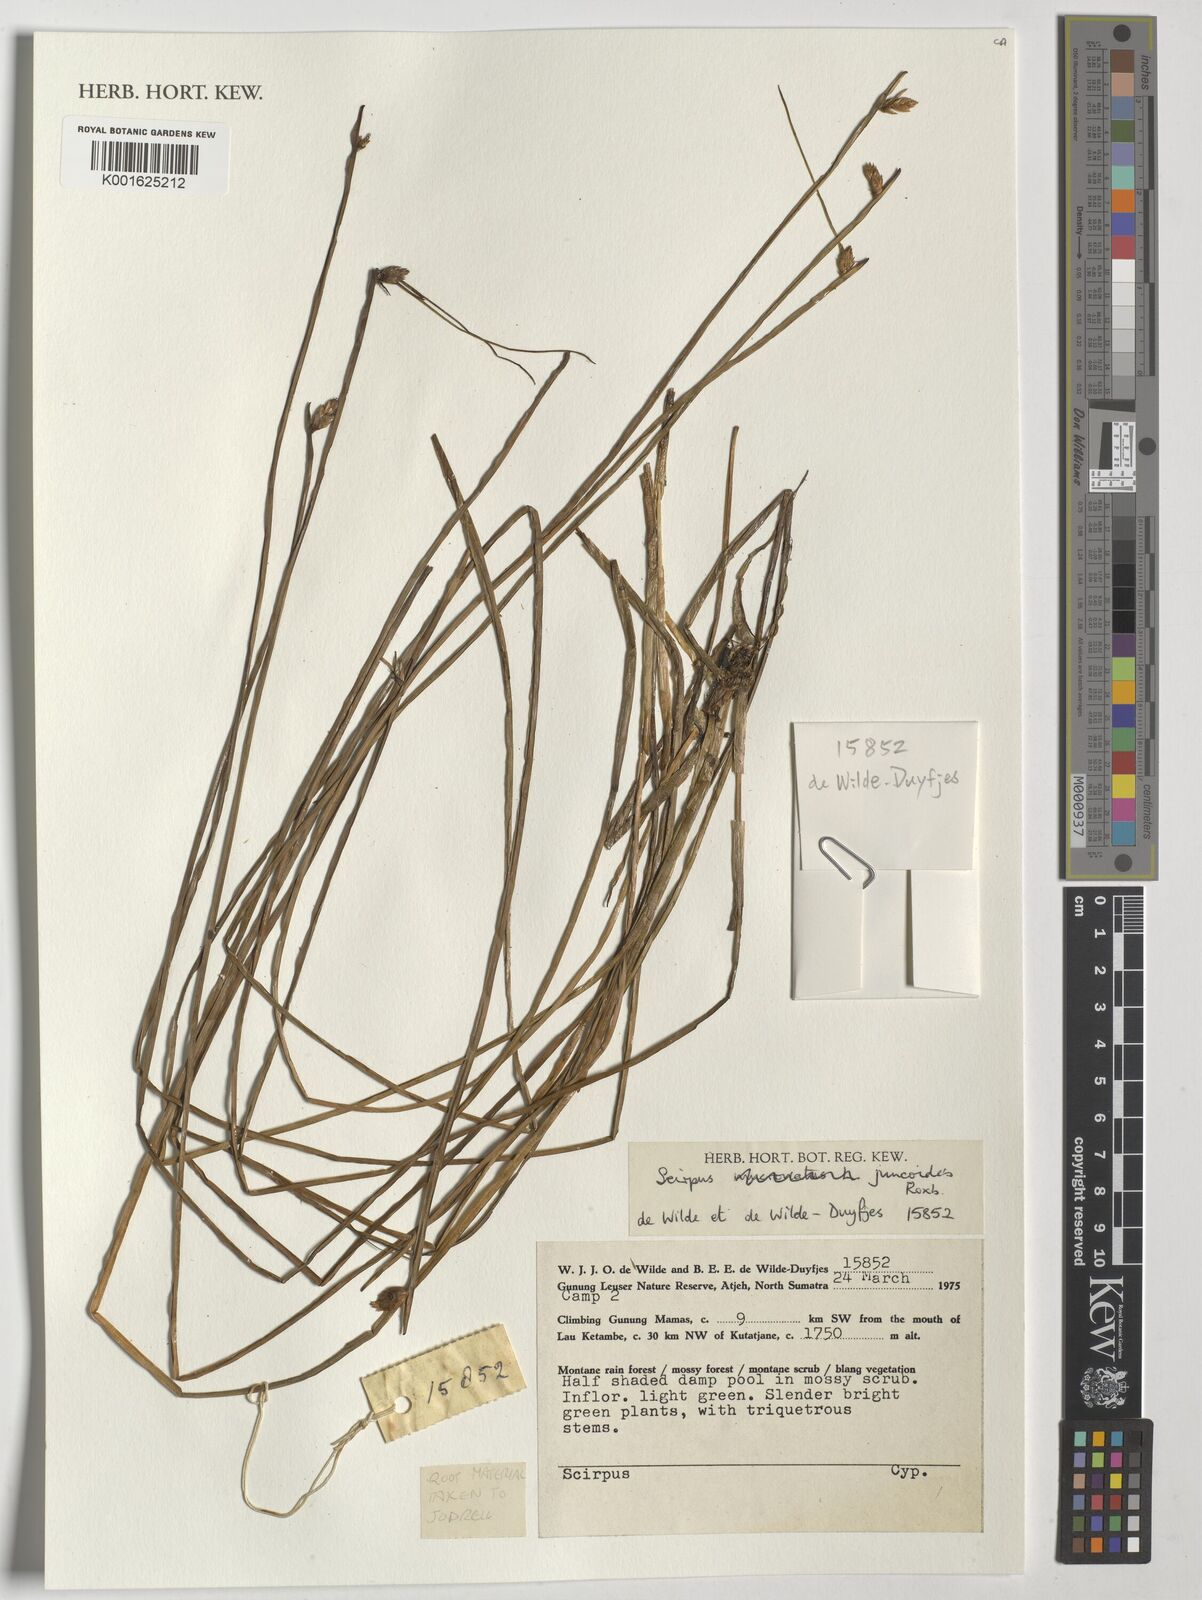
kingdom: Plantae
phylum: Tracheophyta
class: Liliopsida
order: Poales
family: Cyperaceae
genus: Schoenoplectiella
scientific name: Schoenoplectiella juncoides
